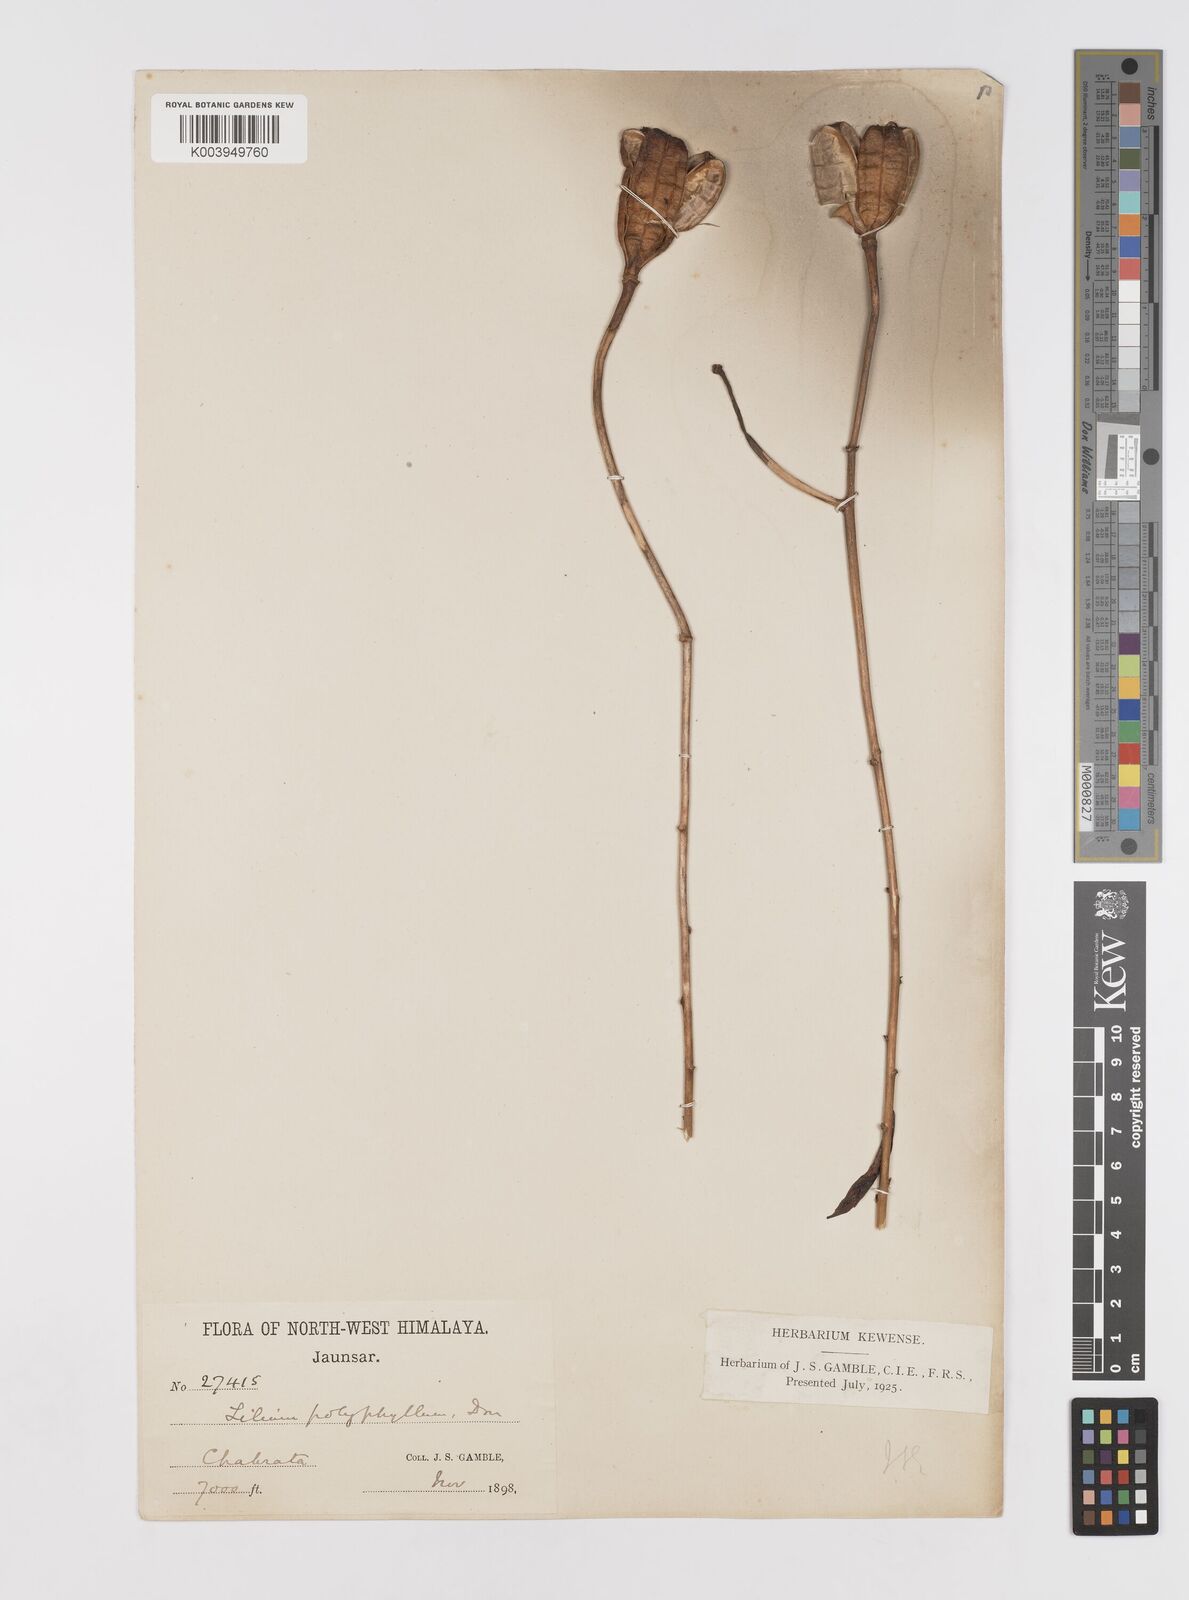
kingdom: Plantae
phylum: Tracheophyta
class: Liliopsida
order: Liliales
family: Liliaceae
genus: Lilium
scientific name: Lilium polyphyllum
